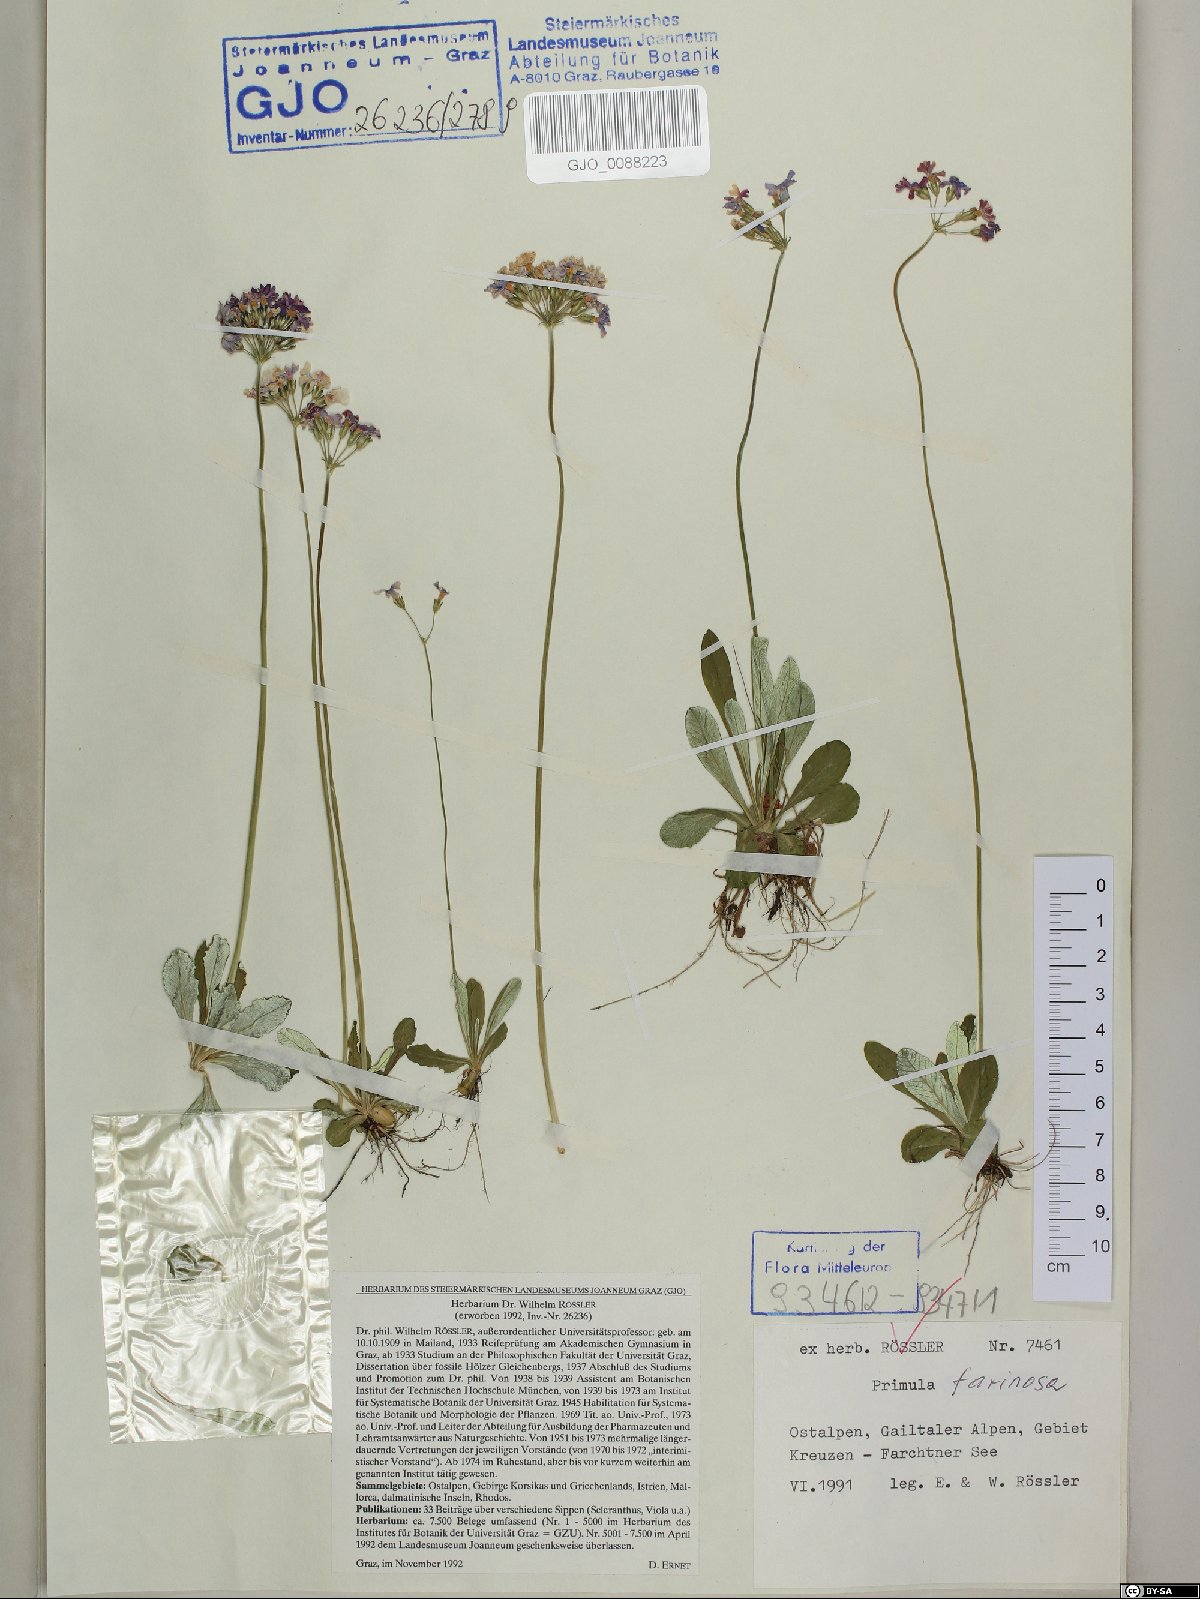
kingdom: Plantae
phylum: Tracheophyta
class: Magnoliopsida
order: Ericales
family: Primulaceae
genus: Primula
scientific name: Primula farinosa
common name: Bird's-eye primrose
